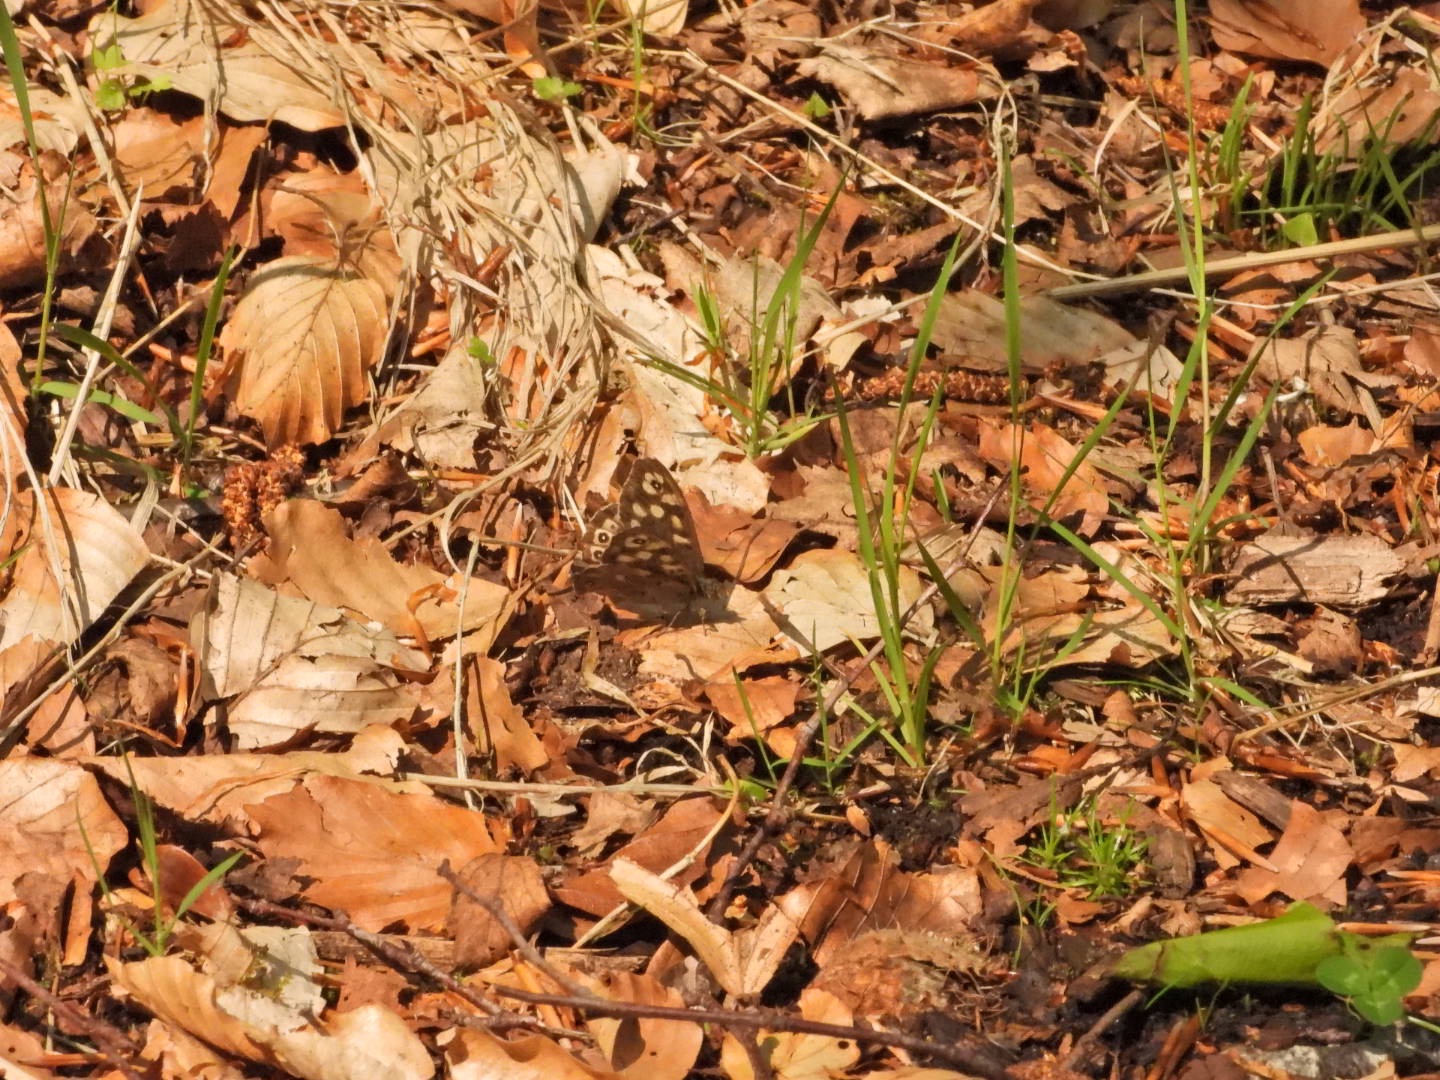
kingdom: Animalia
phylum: Arthropoda
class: Insecta
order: Lepidoptera
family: Nymphalidae
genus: Pararge
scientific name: Pararge aegeria
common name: Skovrandøje
